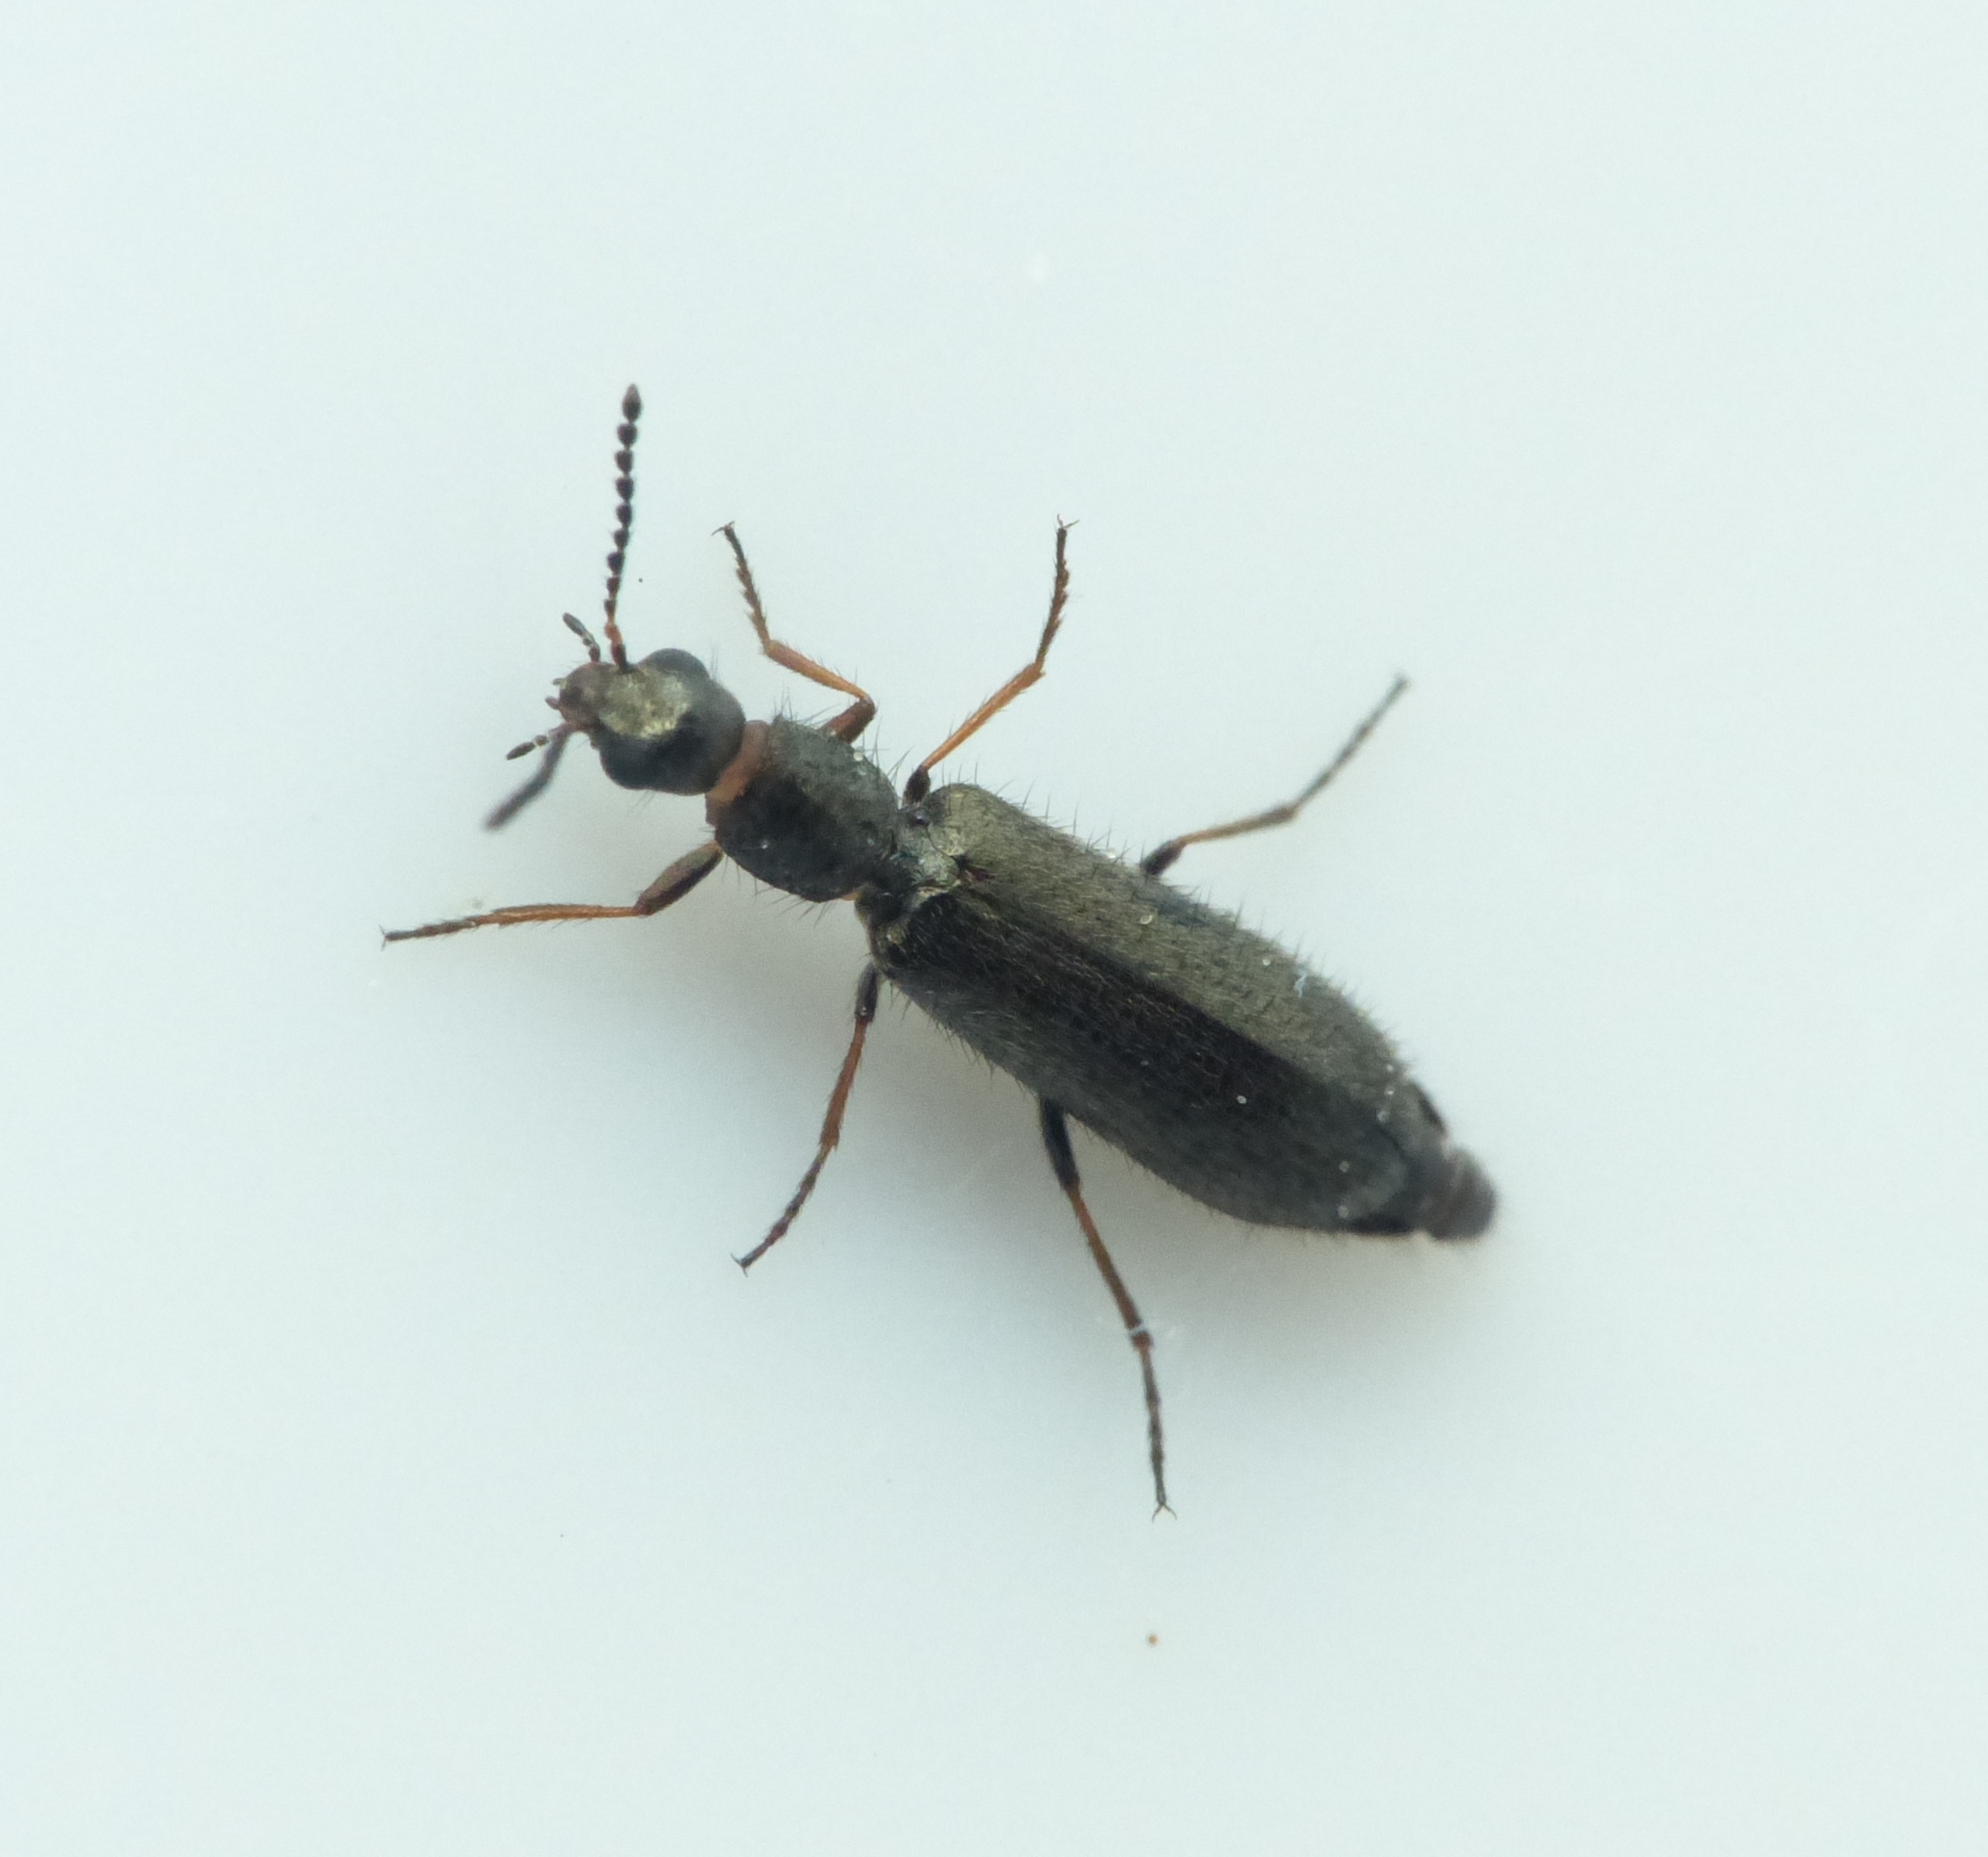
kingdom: Animalia
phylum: Arthropoda
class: Insecta
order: Coleoptera
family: Melyridae
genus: Dasytes
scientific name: Dasytes plumbeus
